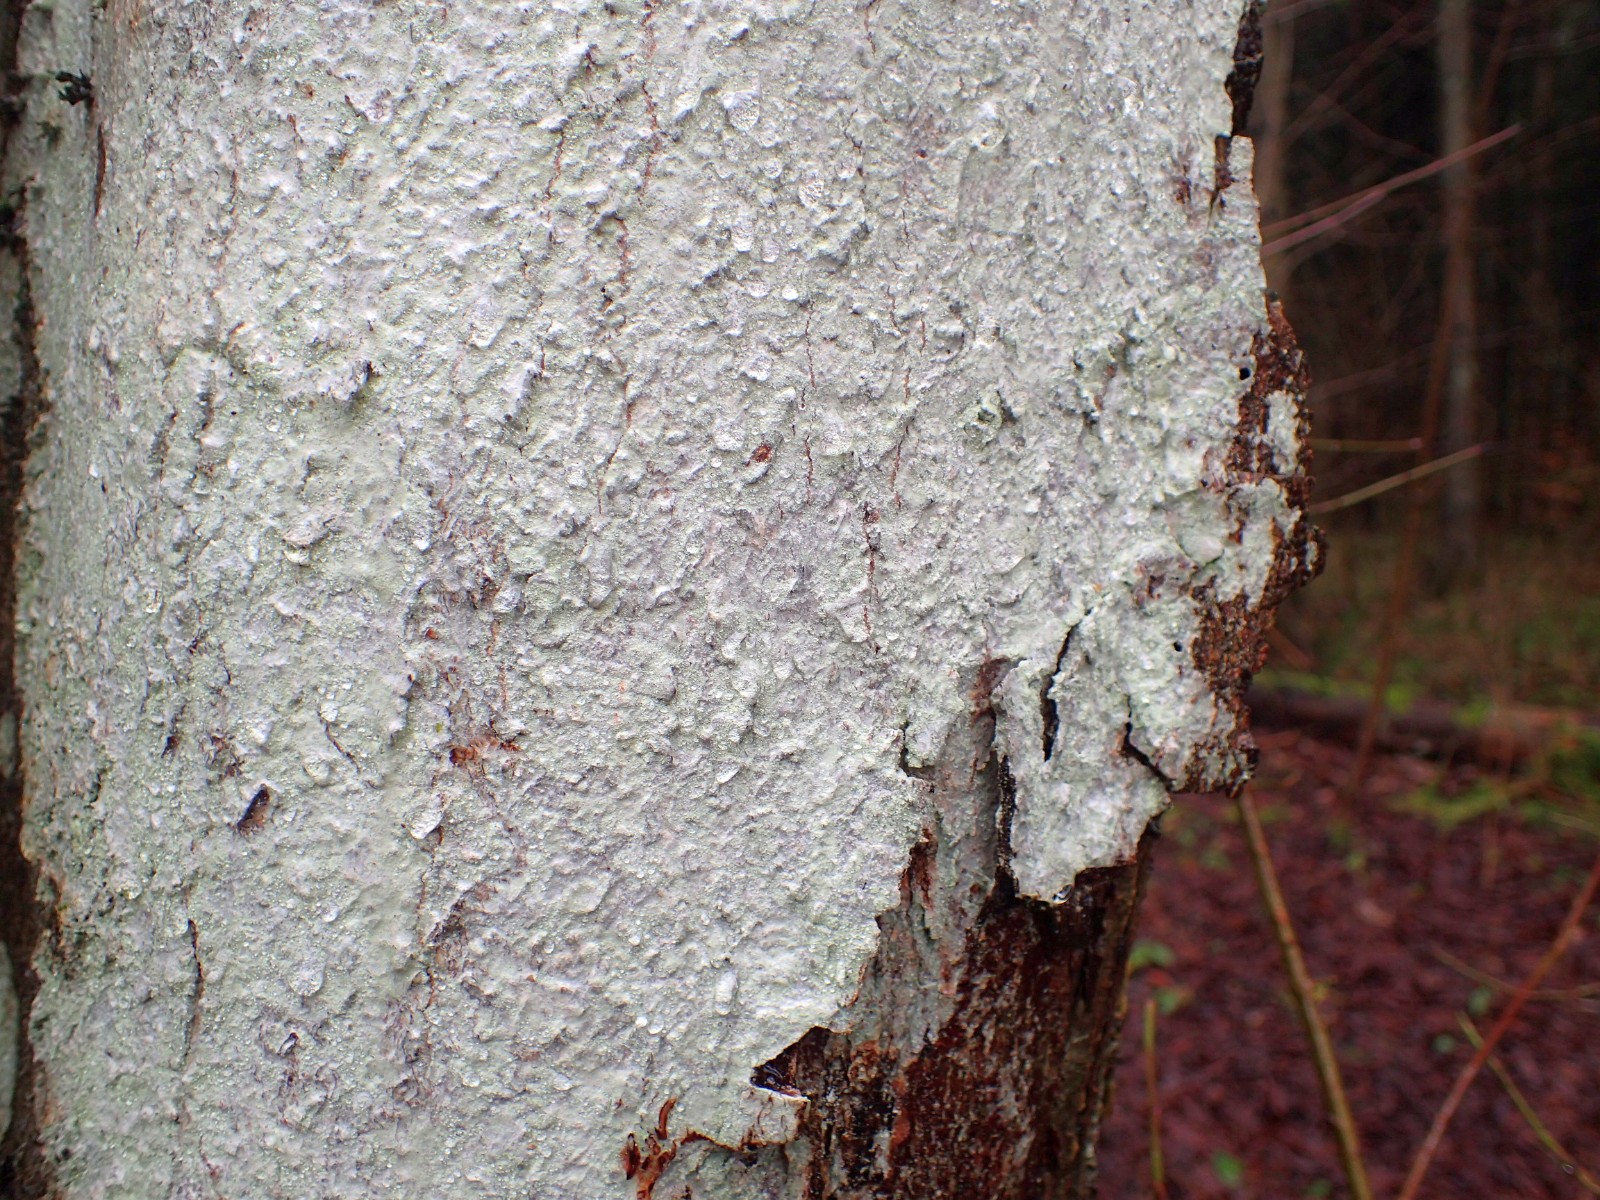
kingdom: Fungi
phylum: Ascomycota
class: Lecanoromycetes
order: Ostropales
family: Phlyctidaceae
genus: Phlyctis
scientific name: Phlyctis argena
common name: almindelig sølvlav
